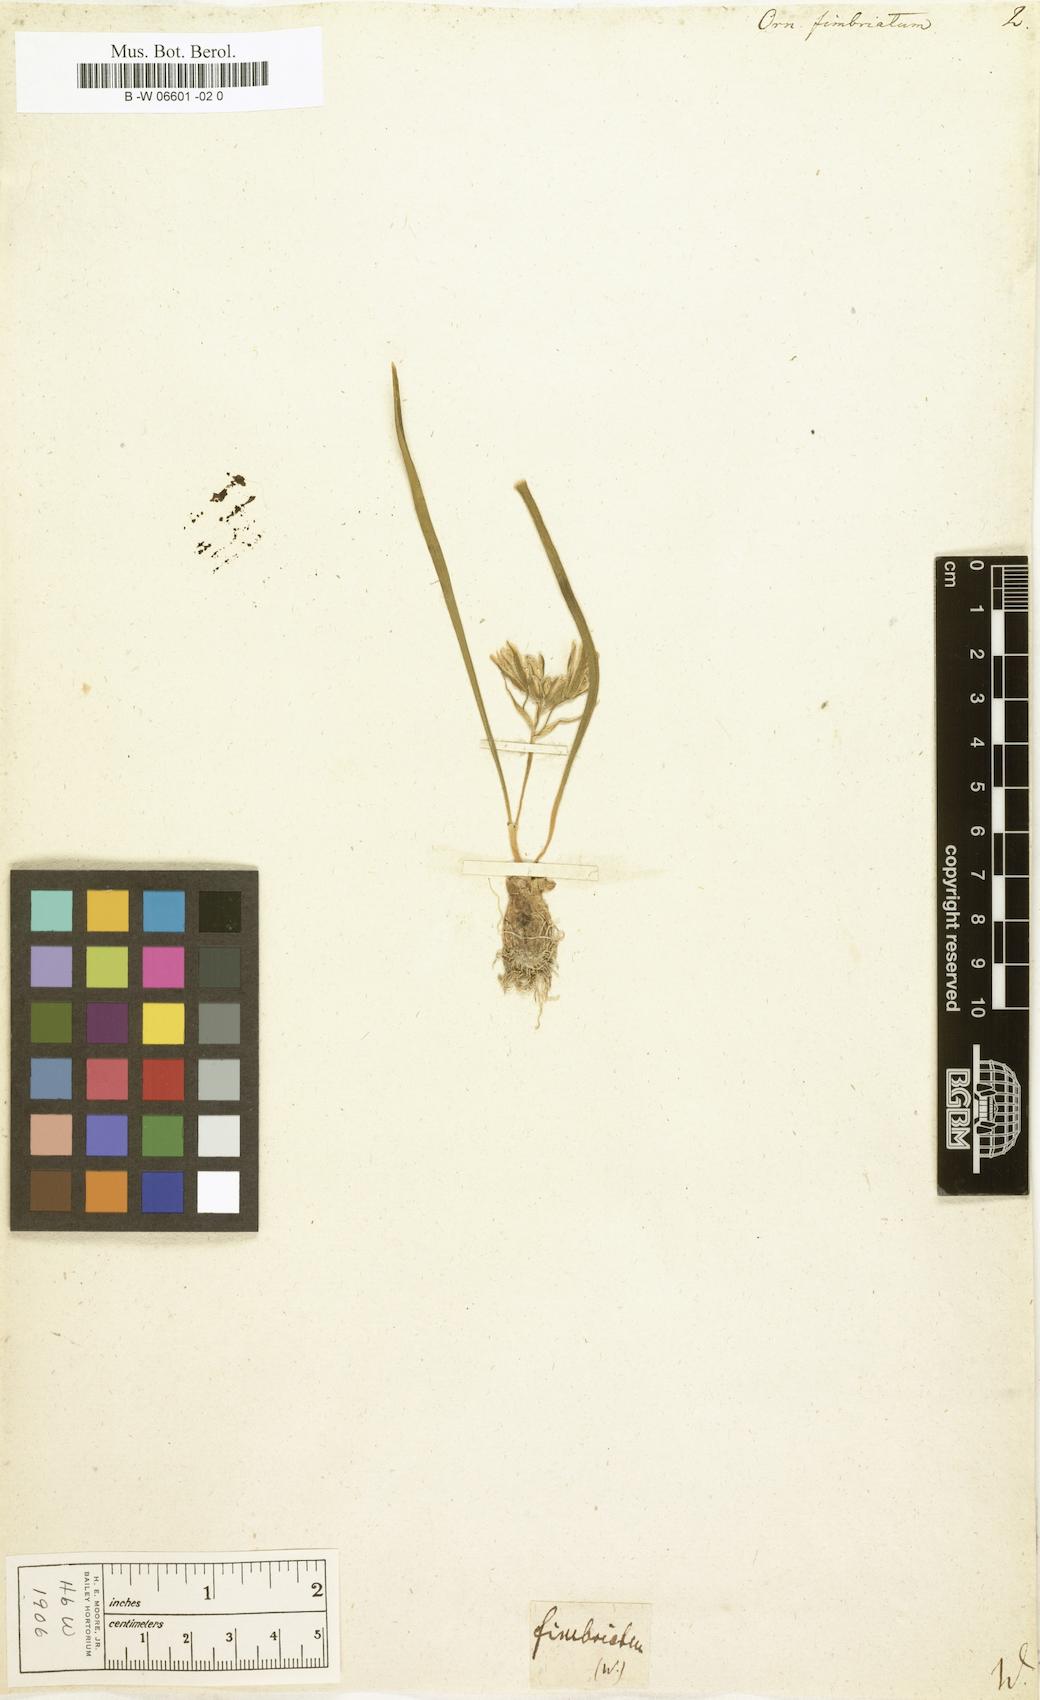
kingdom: Plantae
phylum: Tracheophyta
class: Liliopsida
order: Asparagales
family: Asparagaceae
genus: Ornithogalum
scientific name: Ornithogalum fimbriatum
